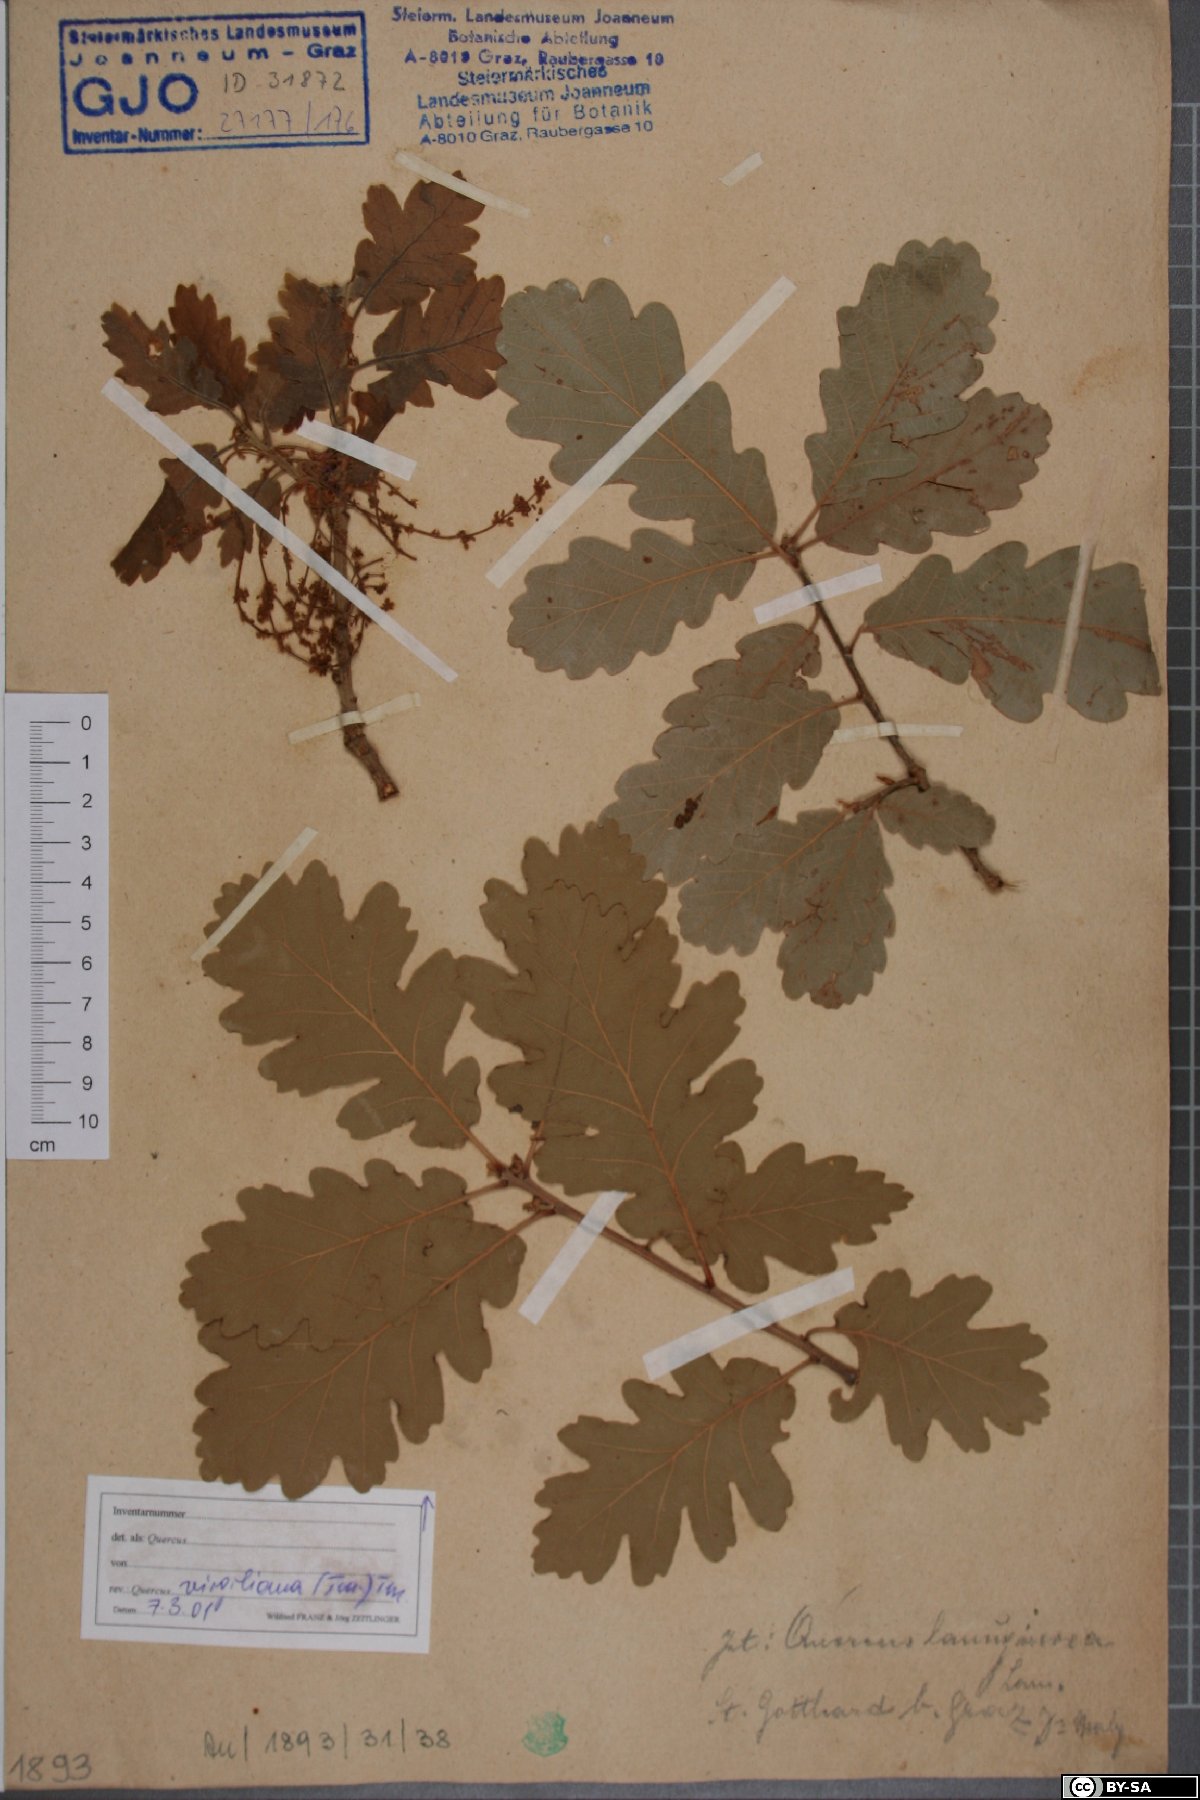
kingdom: Plantae
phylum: Tracheophyta
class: Magnoliopsida
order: Fagales
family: Fagaceae
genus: Quercus
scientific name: Quercus pubescens
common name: Downy oak
